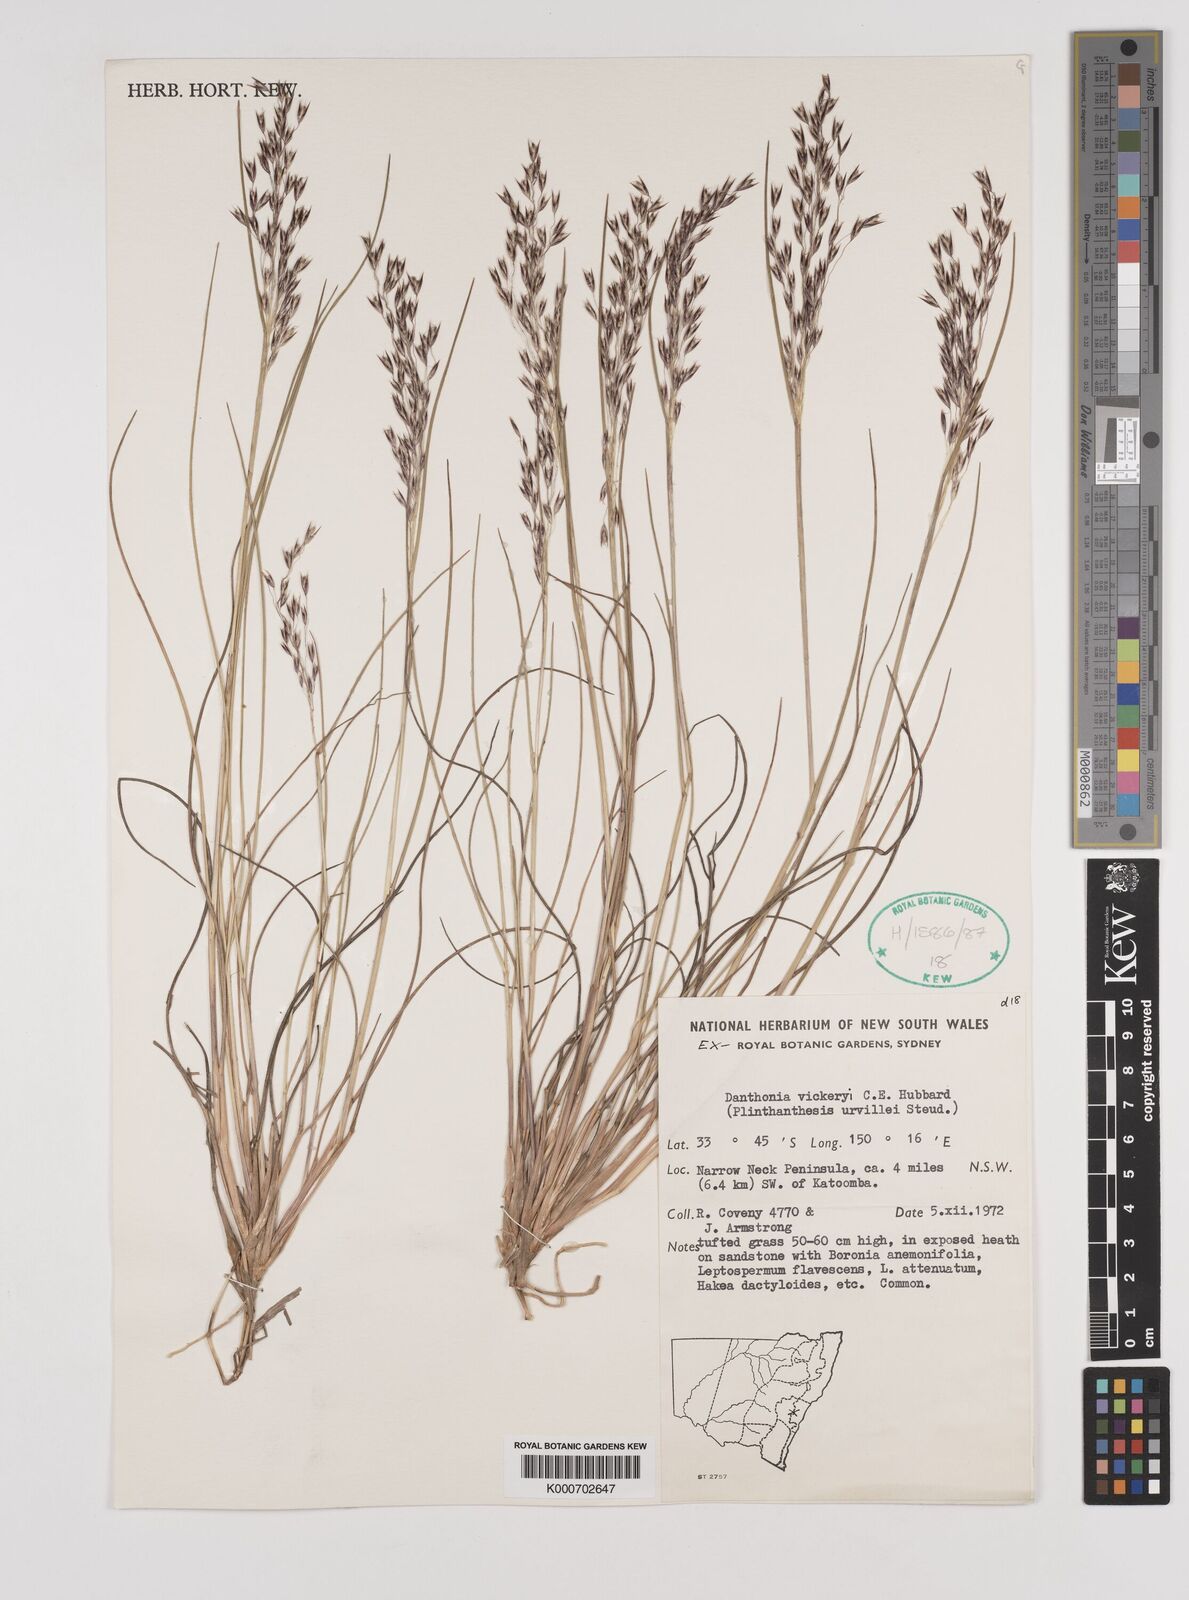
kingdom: Plantae
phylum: Tracheophyta
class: Liliopsida
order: Poales
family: Poaceae
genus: Plinthanthesis
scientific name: Plinthanthesis urvillei
